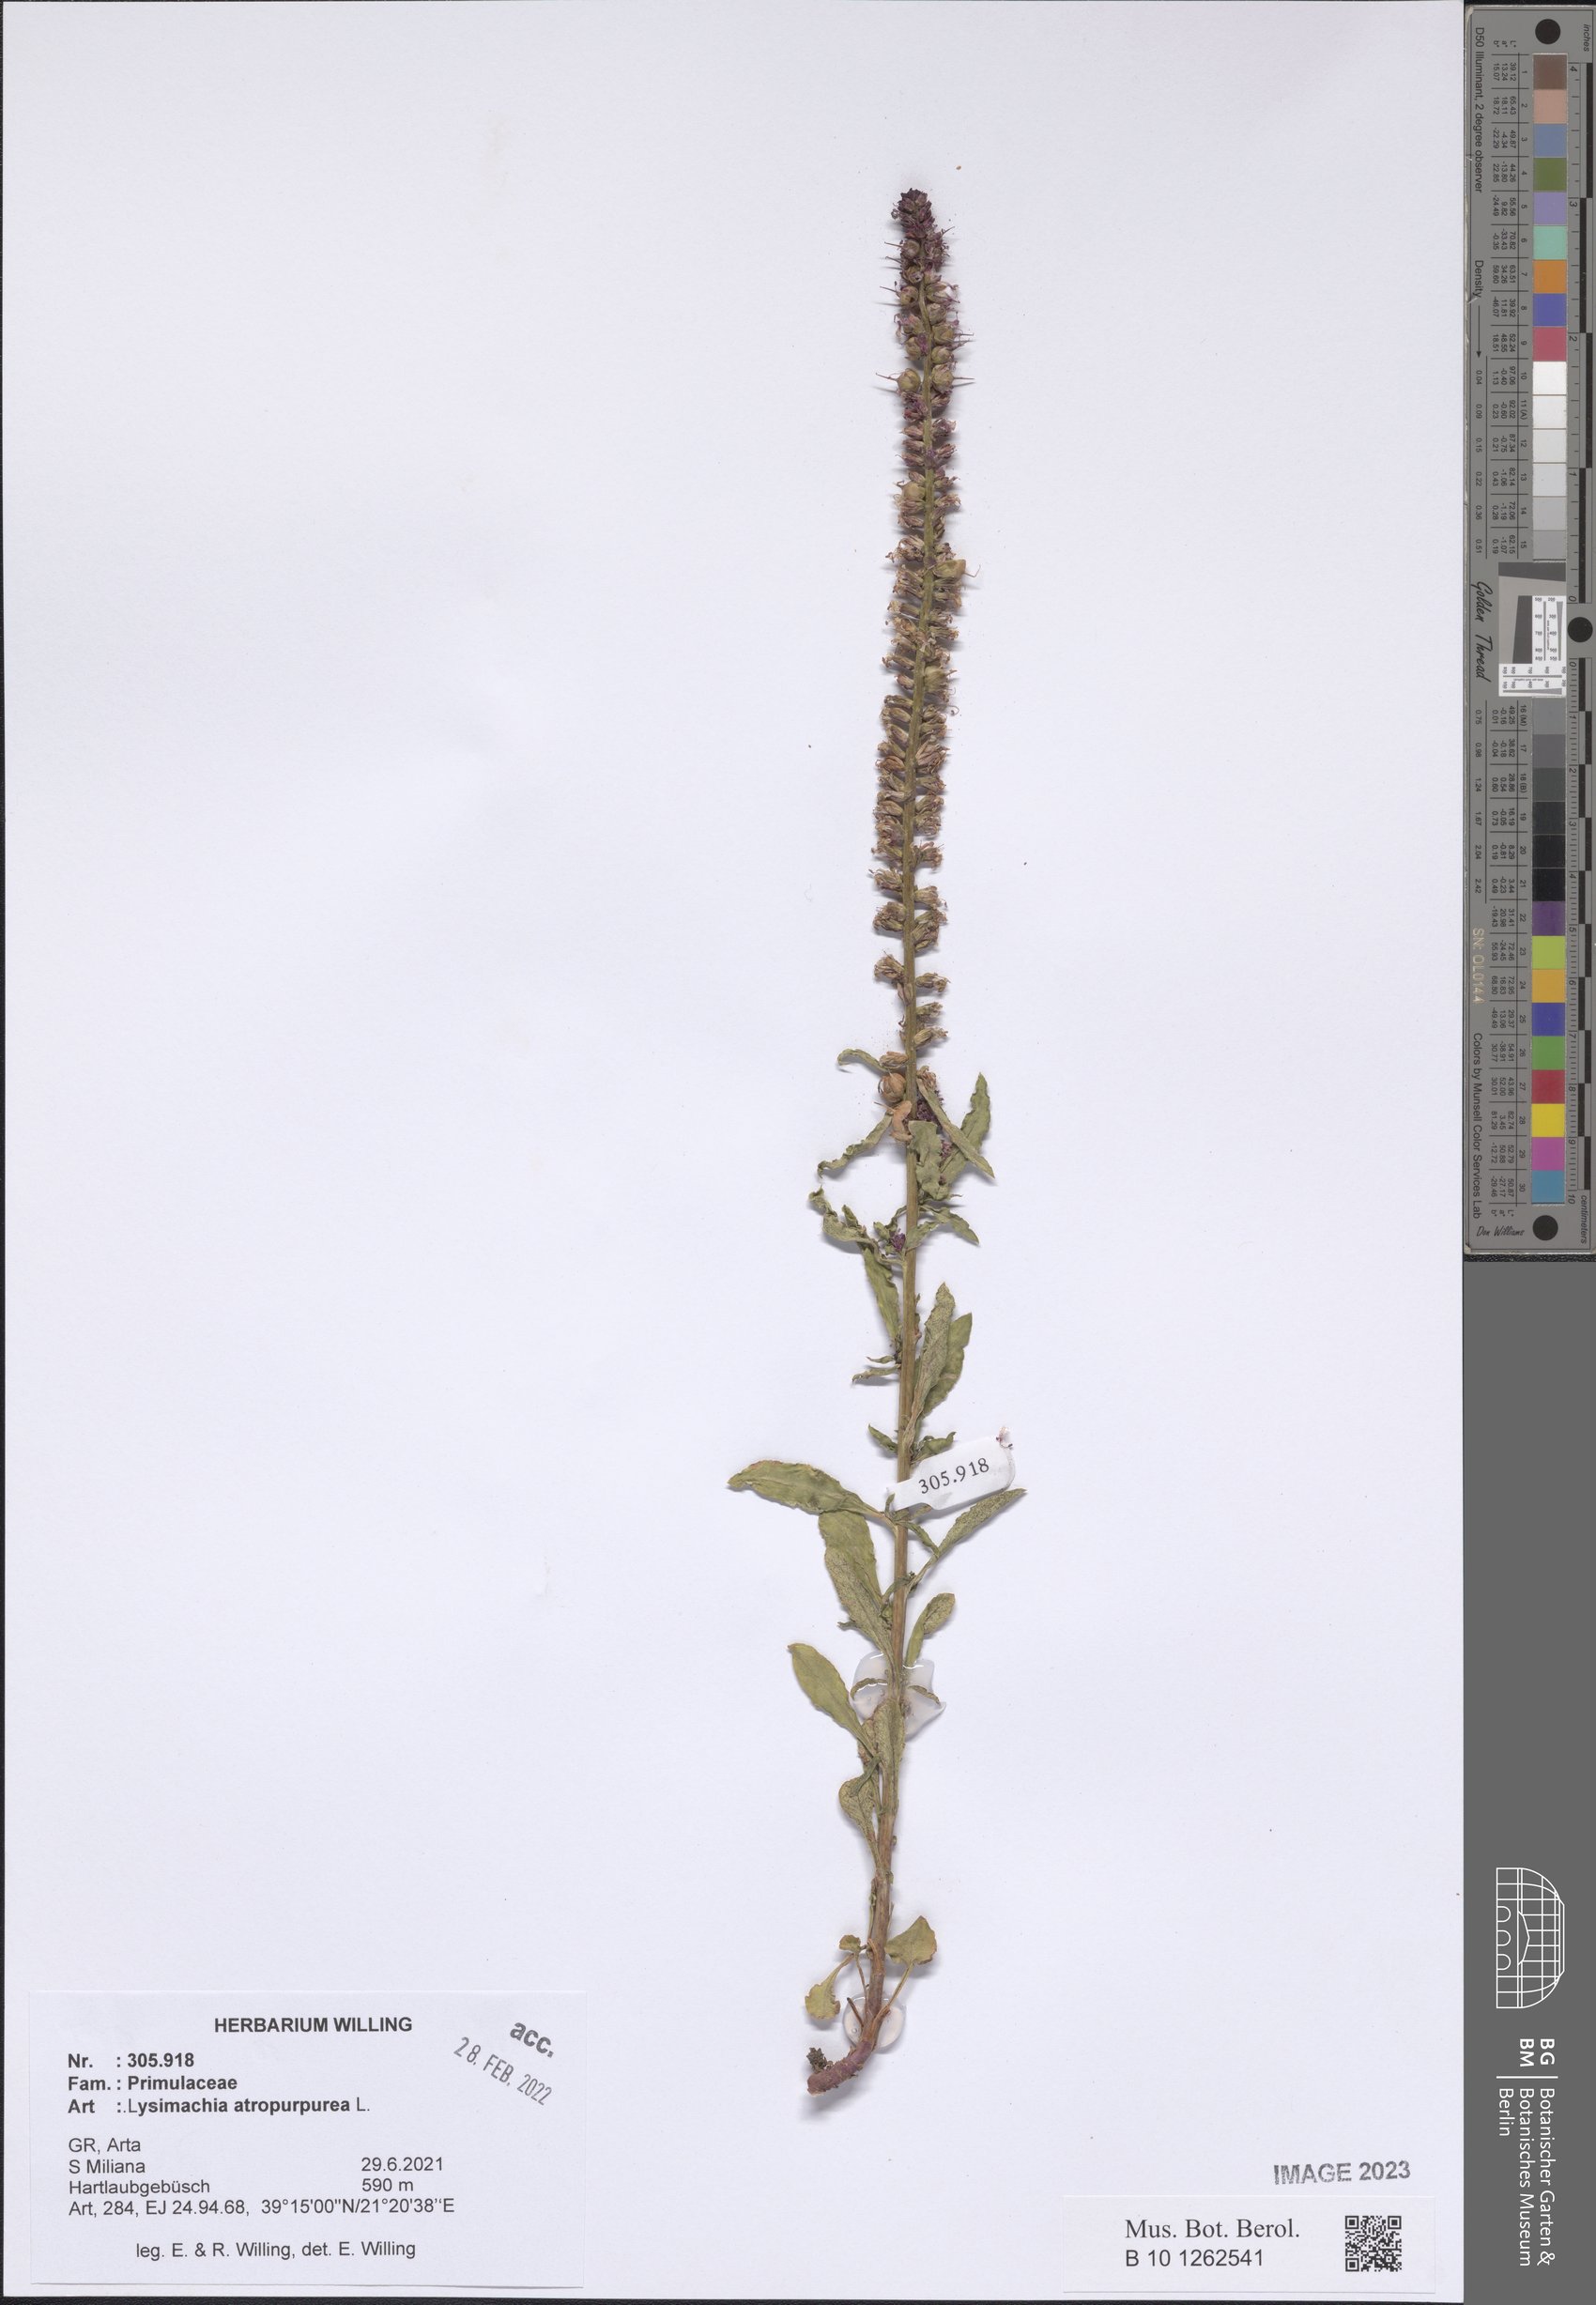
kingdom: Plantae
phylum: Tracheophyta
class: Magnoliopsida
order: Ericales
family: Primulaceae
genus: Lysimachia
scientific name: Lysimachia atropurpurea
